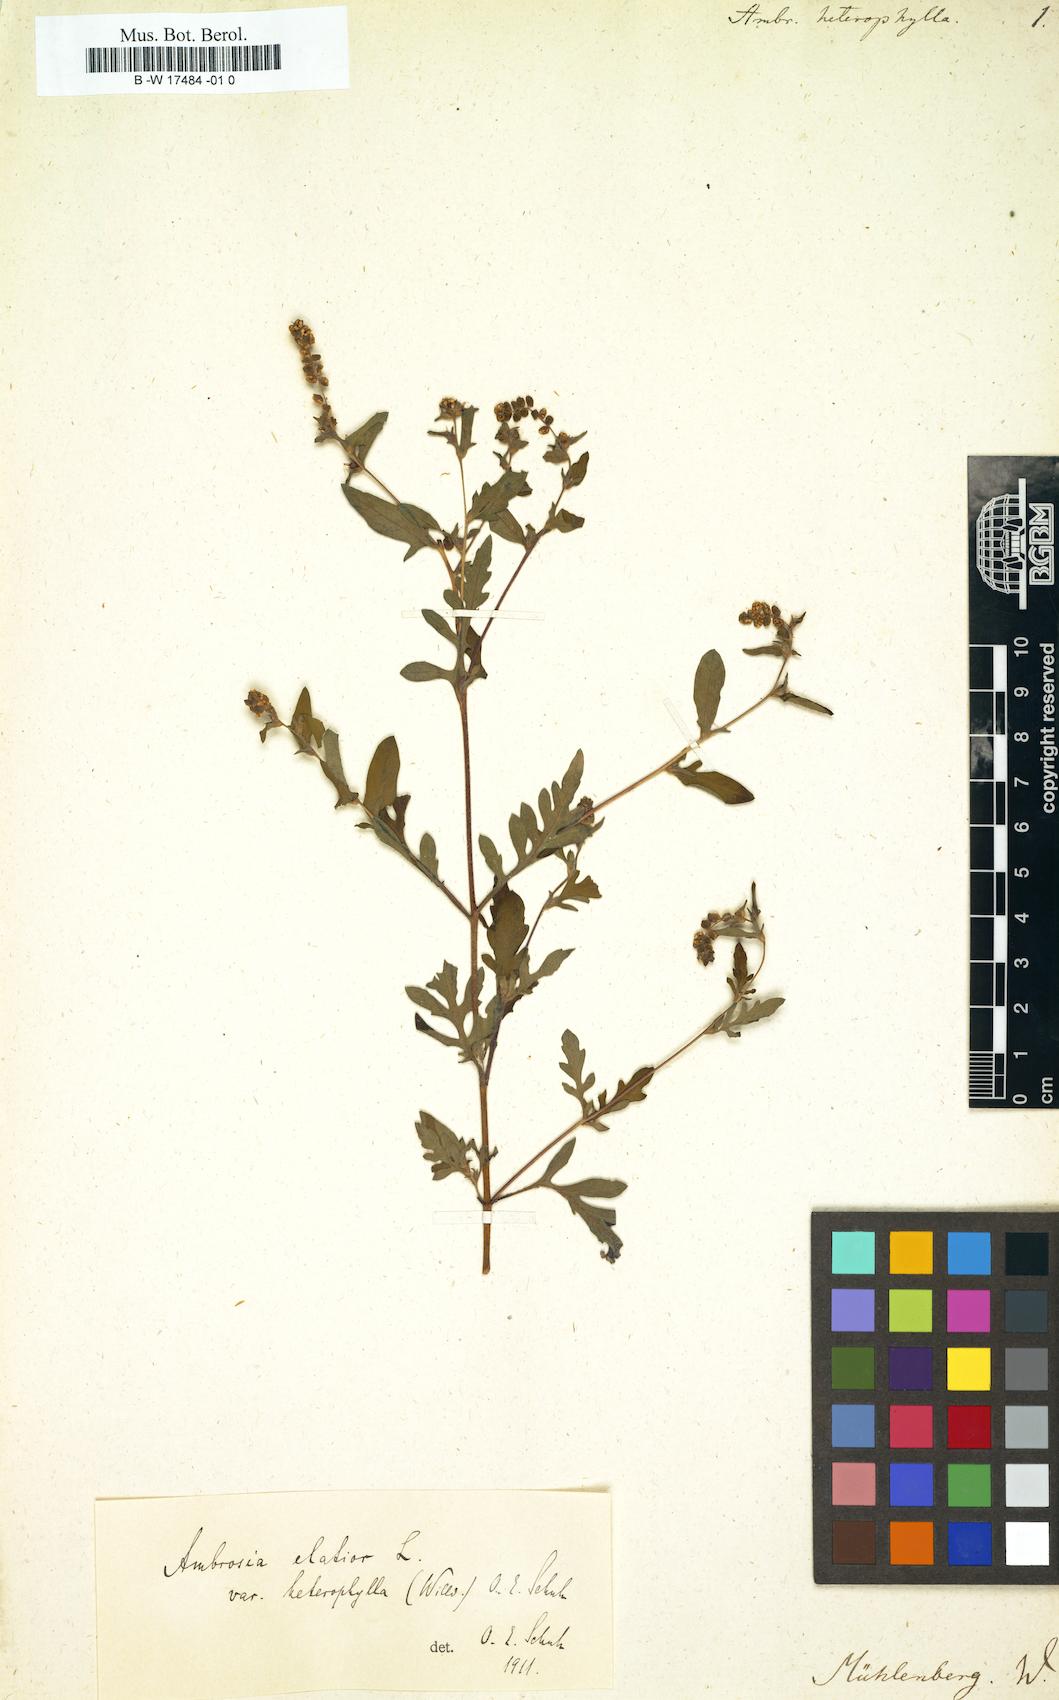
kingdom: Plantae
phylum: Tracheophyta
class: Magnoliopsida
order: Asterales
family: Asteraceae
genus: Ambrosia
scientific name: Ambrosia polystachya
